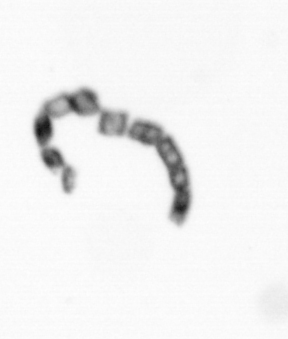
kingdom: Chromista
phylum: Ochrophyta
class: Bacillariophyceae
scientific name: Bacillariophyceae
